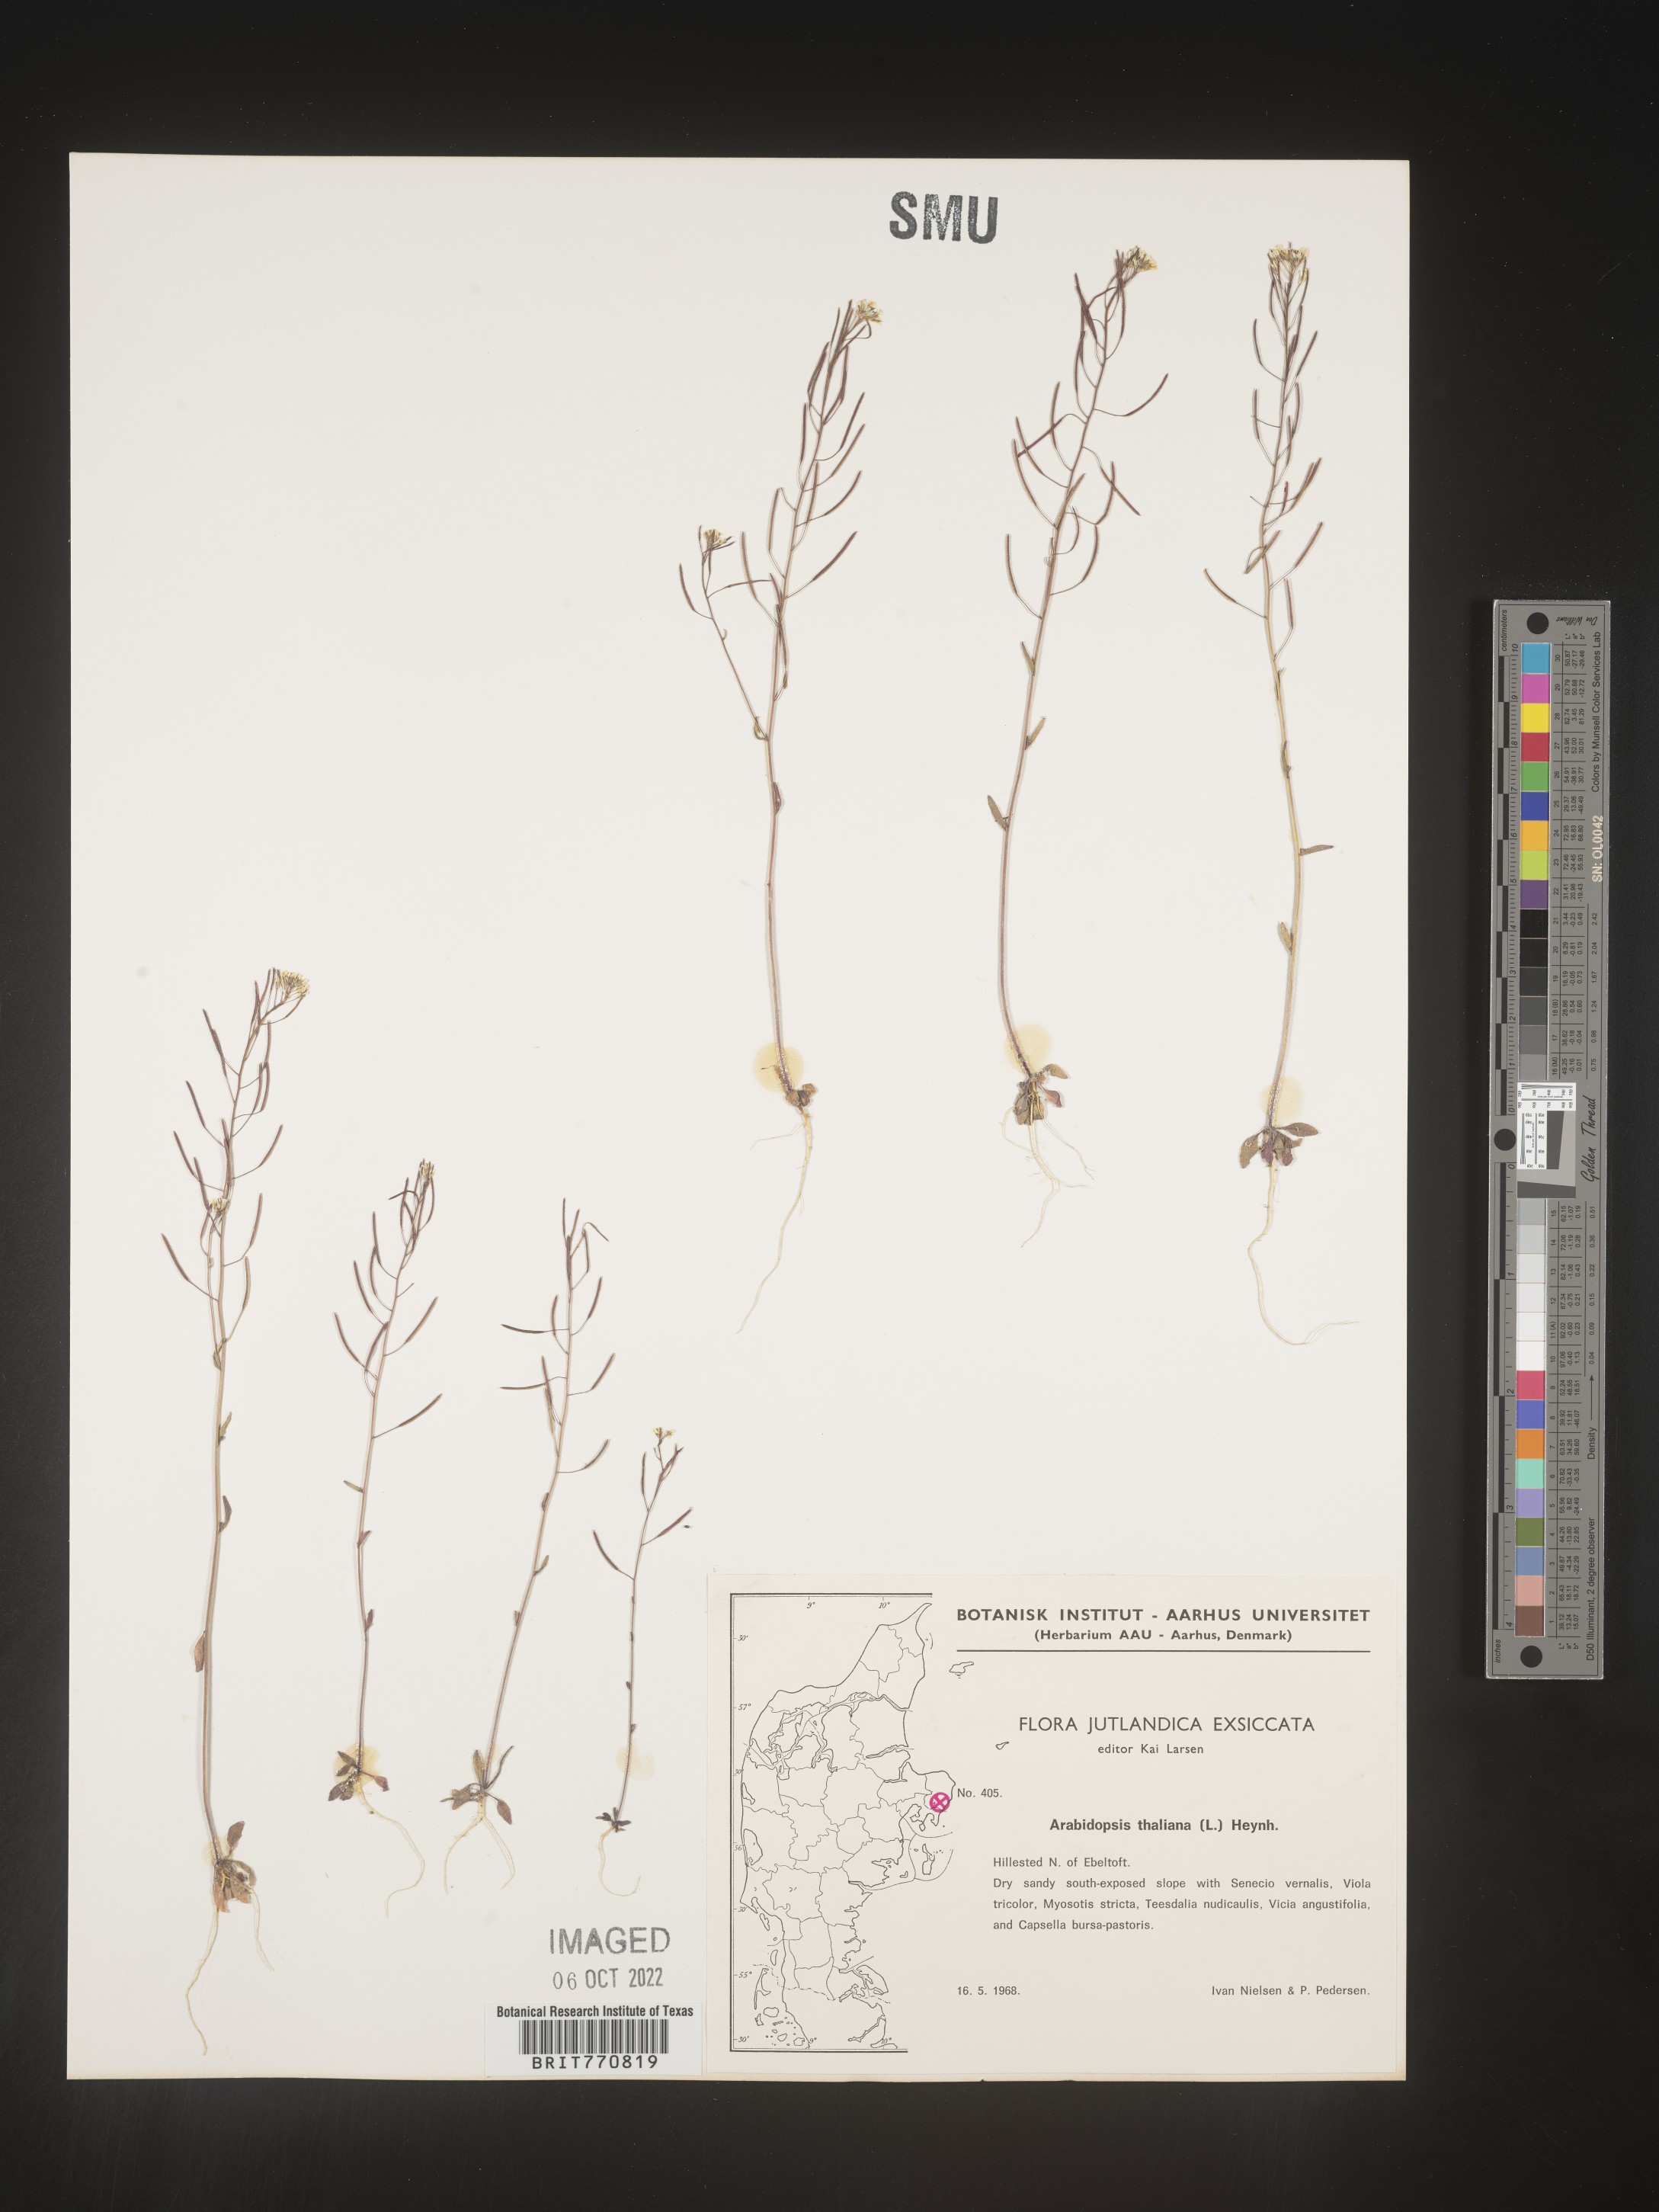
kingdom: Plantae
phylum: Tracheophyta
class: Magnoliopsida
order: Brassicales
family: Brassicaceae
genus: Arabidopsis
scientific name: Arabidopsis
